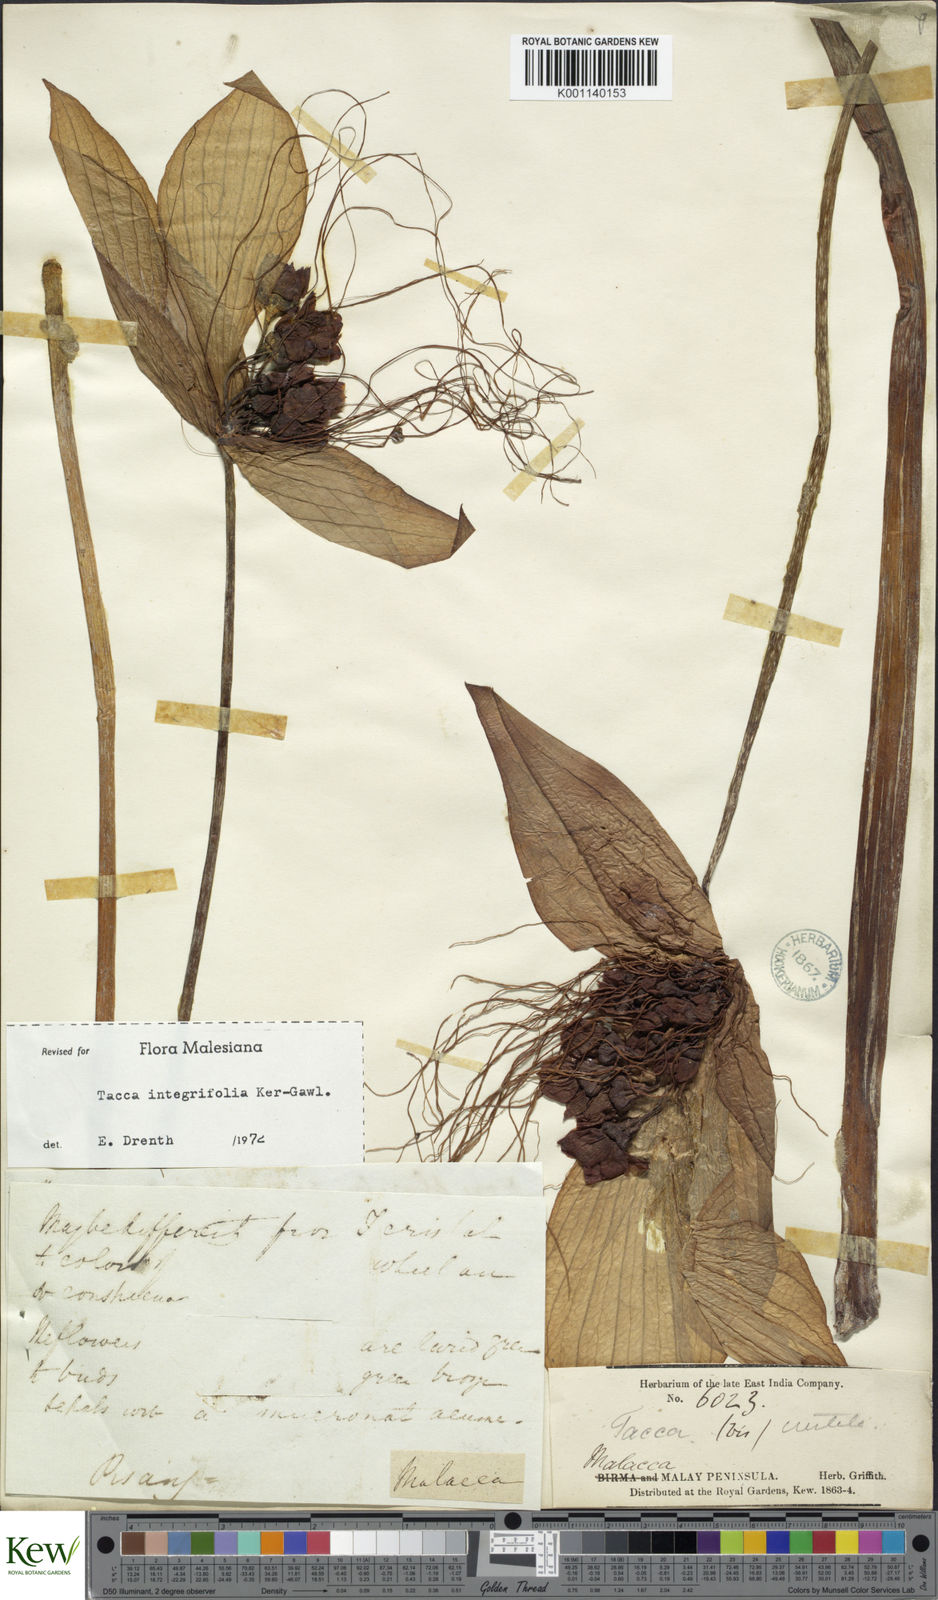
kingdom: Plantae
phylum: Tracheophyta
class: Liliopsida
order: Dioscoreales
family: Dioscoreaceae
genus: Tacca
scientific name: Tacca integrifolia
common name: Batplant
